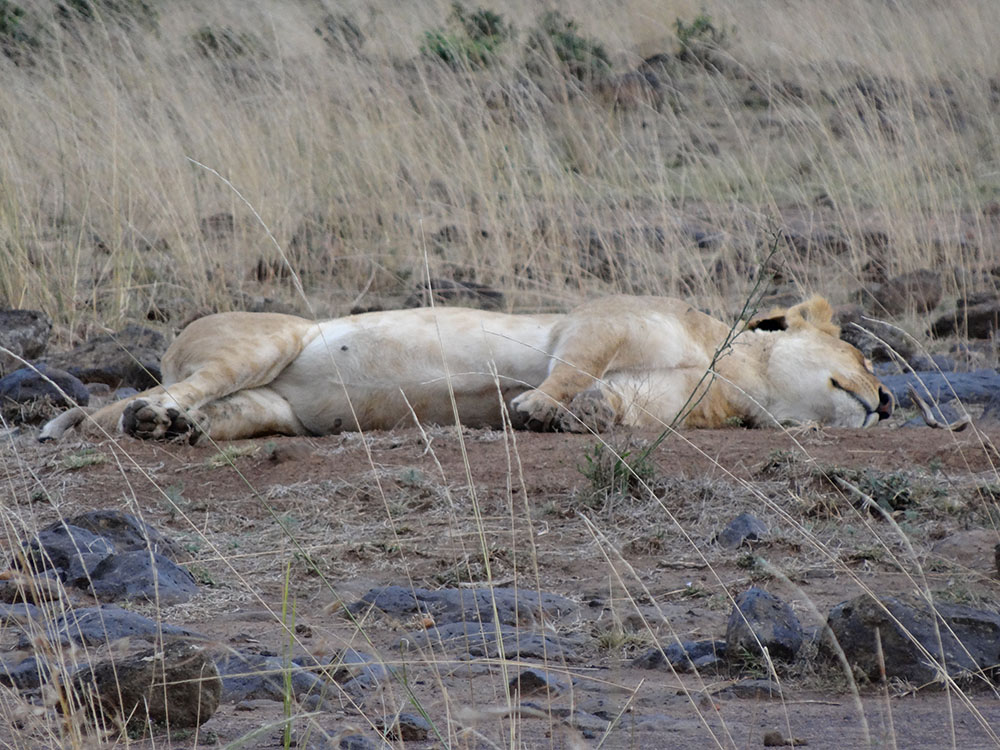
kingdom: Animalia
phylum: Chordata
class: Mammalia
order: Carnivora
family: Felidae
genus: Panthera
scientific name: Panthera leo
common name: Lion
